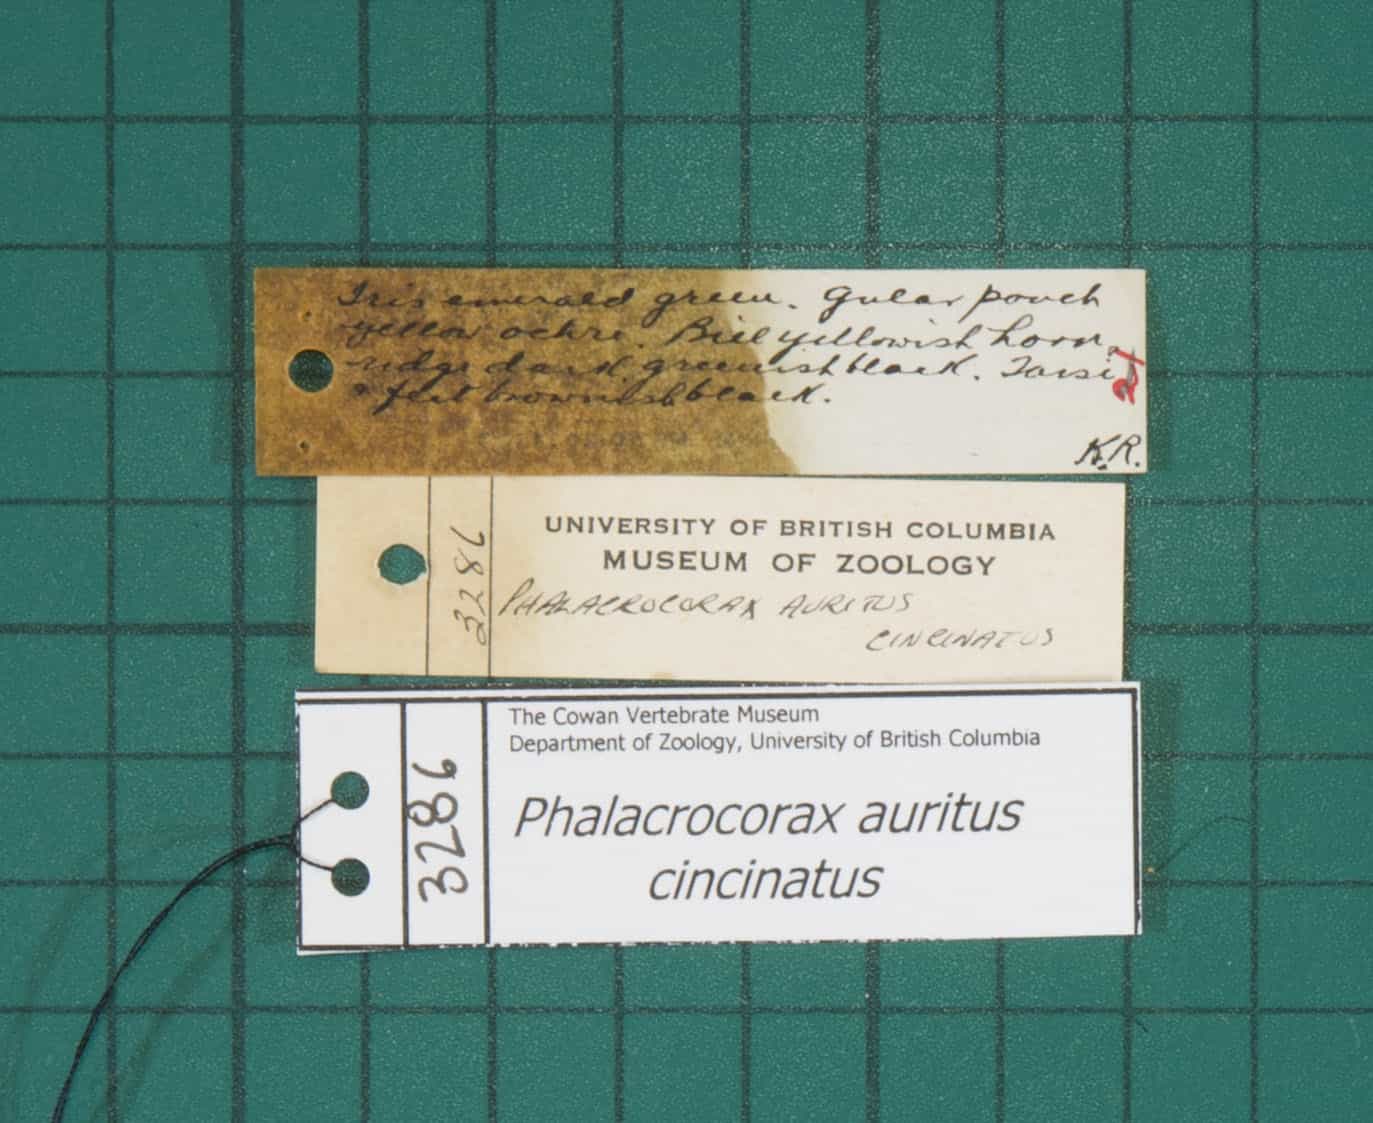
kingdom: Animalia
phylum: Chordata
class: Aves
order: Suliformes
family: Phalacrocoracidae
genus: Phalacrocorax
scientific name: Phalacrocorax auritus
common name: Double-crested Cormorant
